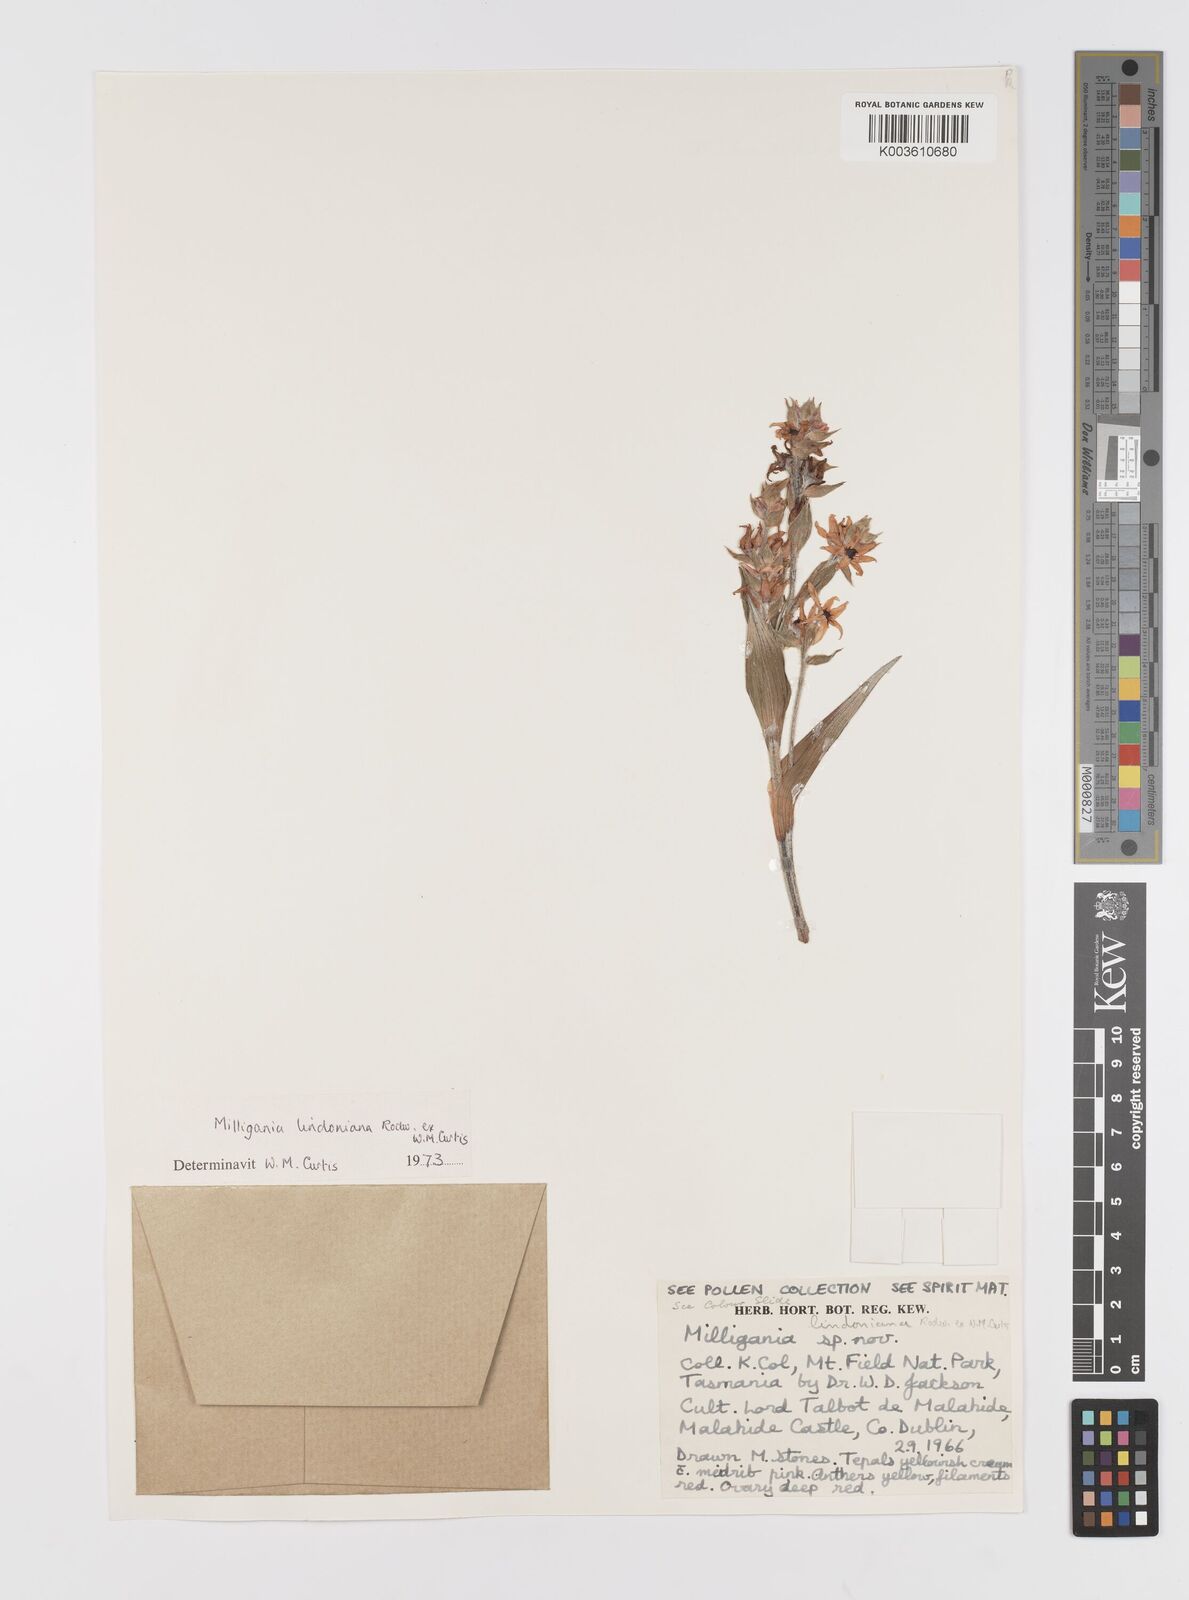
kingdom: Plantae
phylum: Tracheophyta
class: Liliopsida
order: Asparagales
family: Asteliaceae
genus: Milligania
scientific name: Milligania lindoniana
